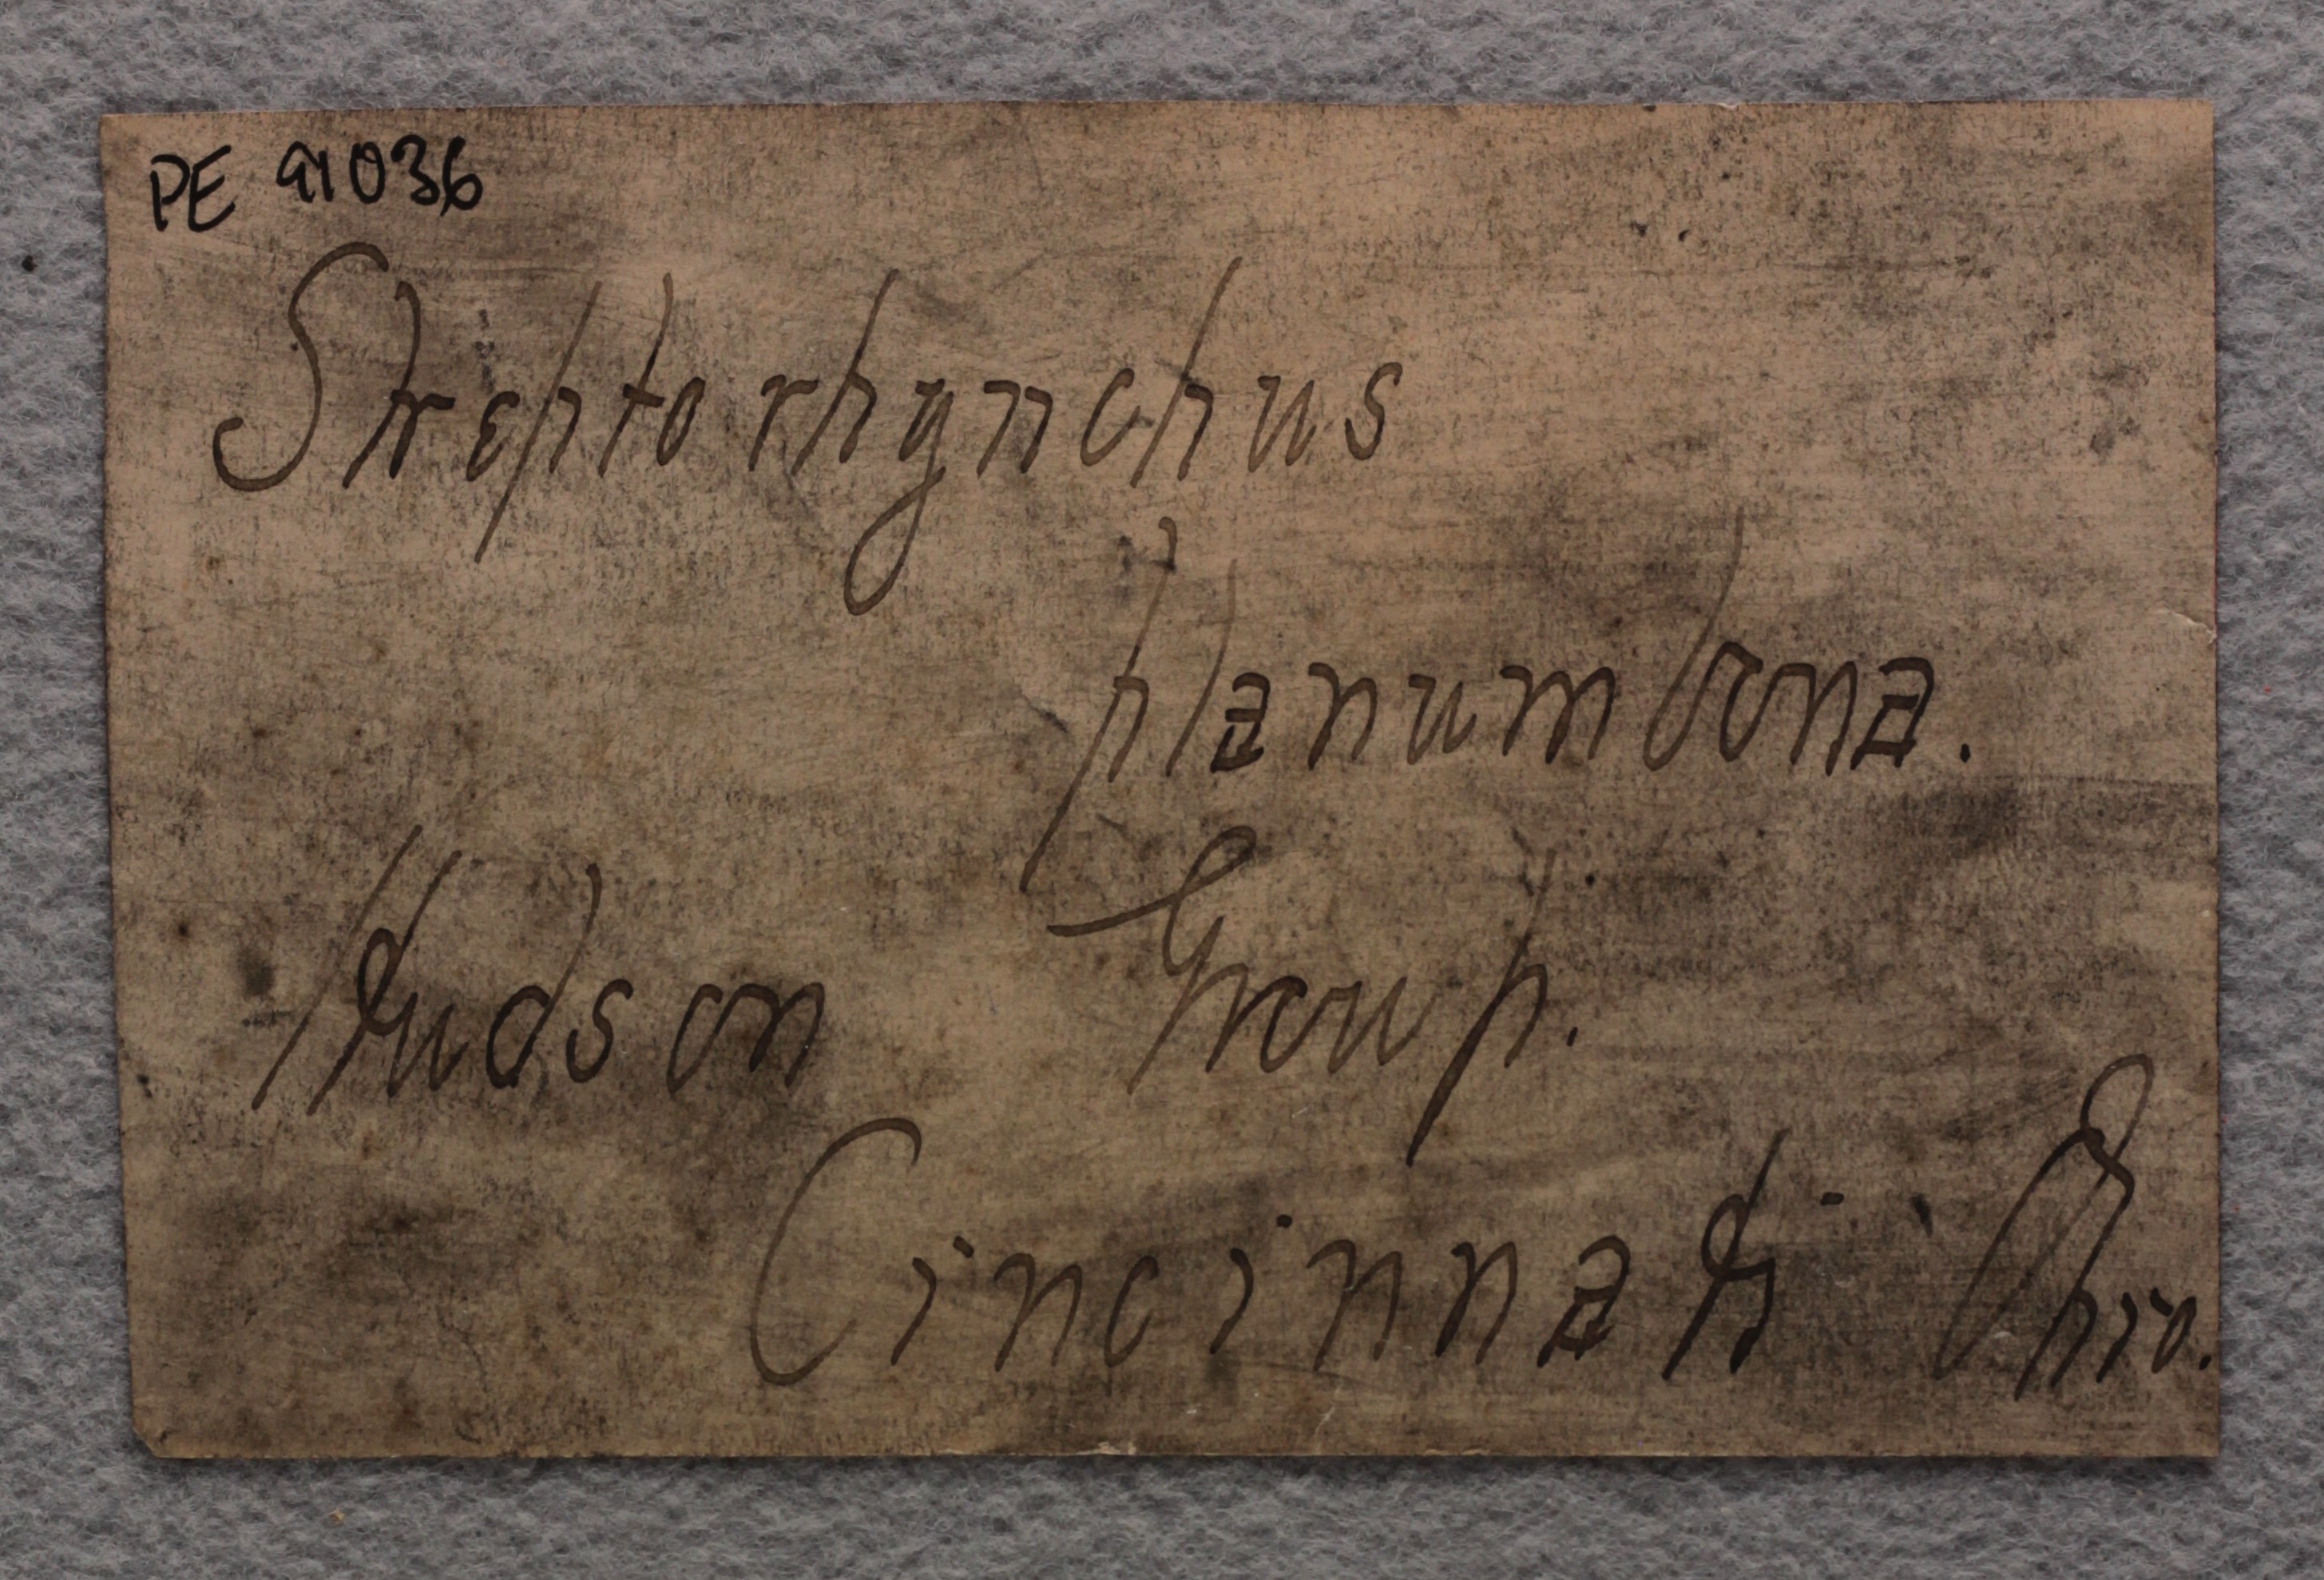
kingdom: Animalia
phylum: Brachiopoda
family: Streptorhynchidae
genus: Streptorhynchus
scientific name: Streptorhynchus
